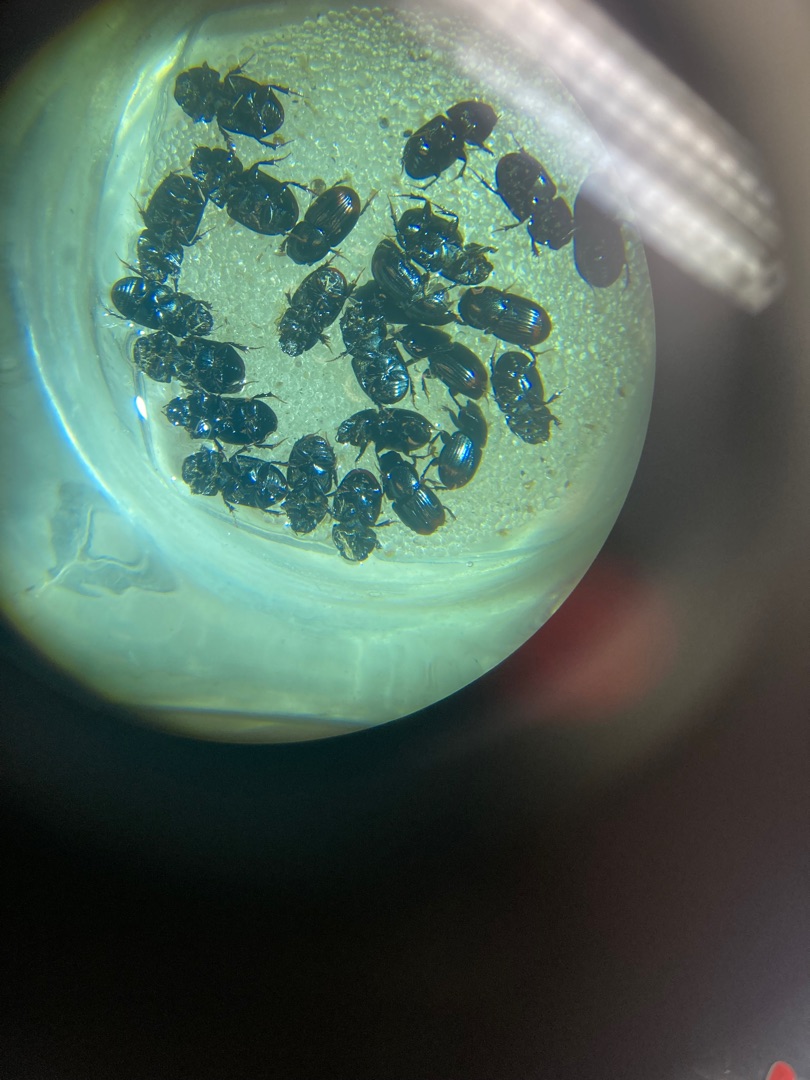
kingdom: Animalia
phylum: Arthropoda
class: Insecta
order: Coleoptera
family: Scarabaeidae
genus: Otophorus
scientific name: Otophorus haemorrhoidalis
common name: Rødhalet møgbille
